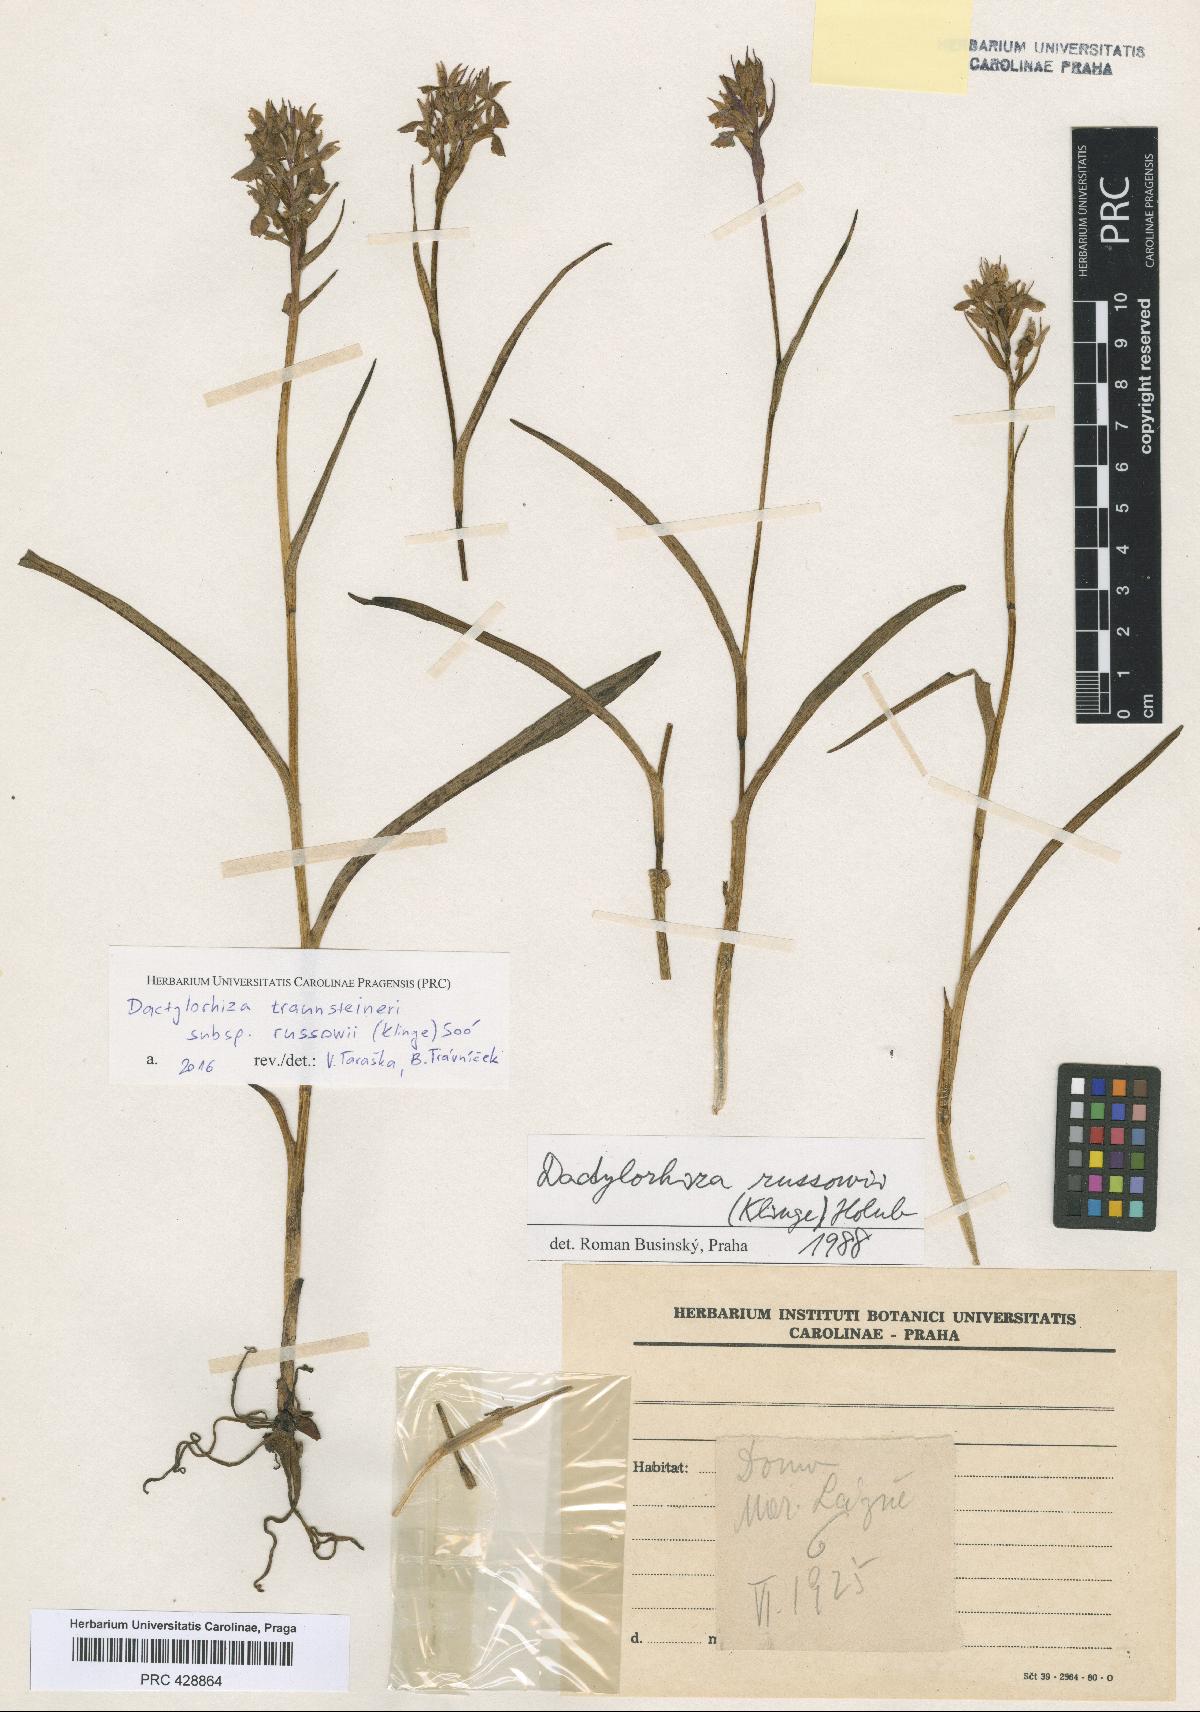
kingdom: Plantae
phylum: Tracheophyta
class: Liliopsida
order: Asparagales
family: Orchidaceae
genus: Dactylorhiza
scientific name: Dactylorhiza russowii
